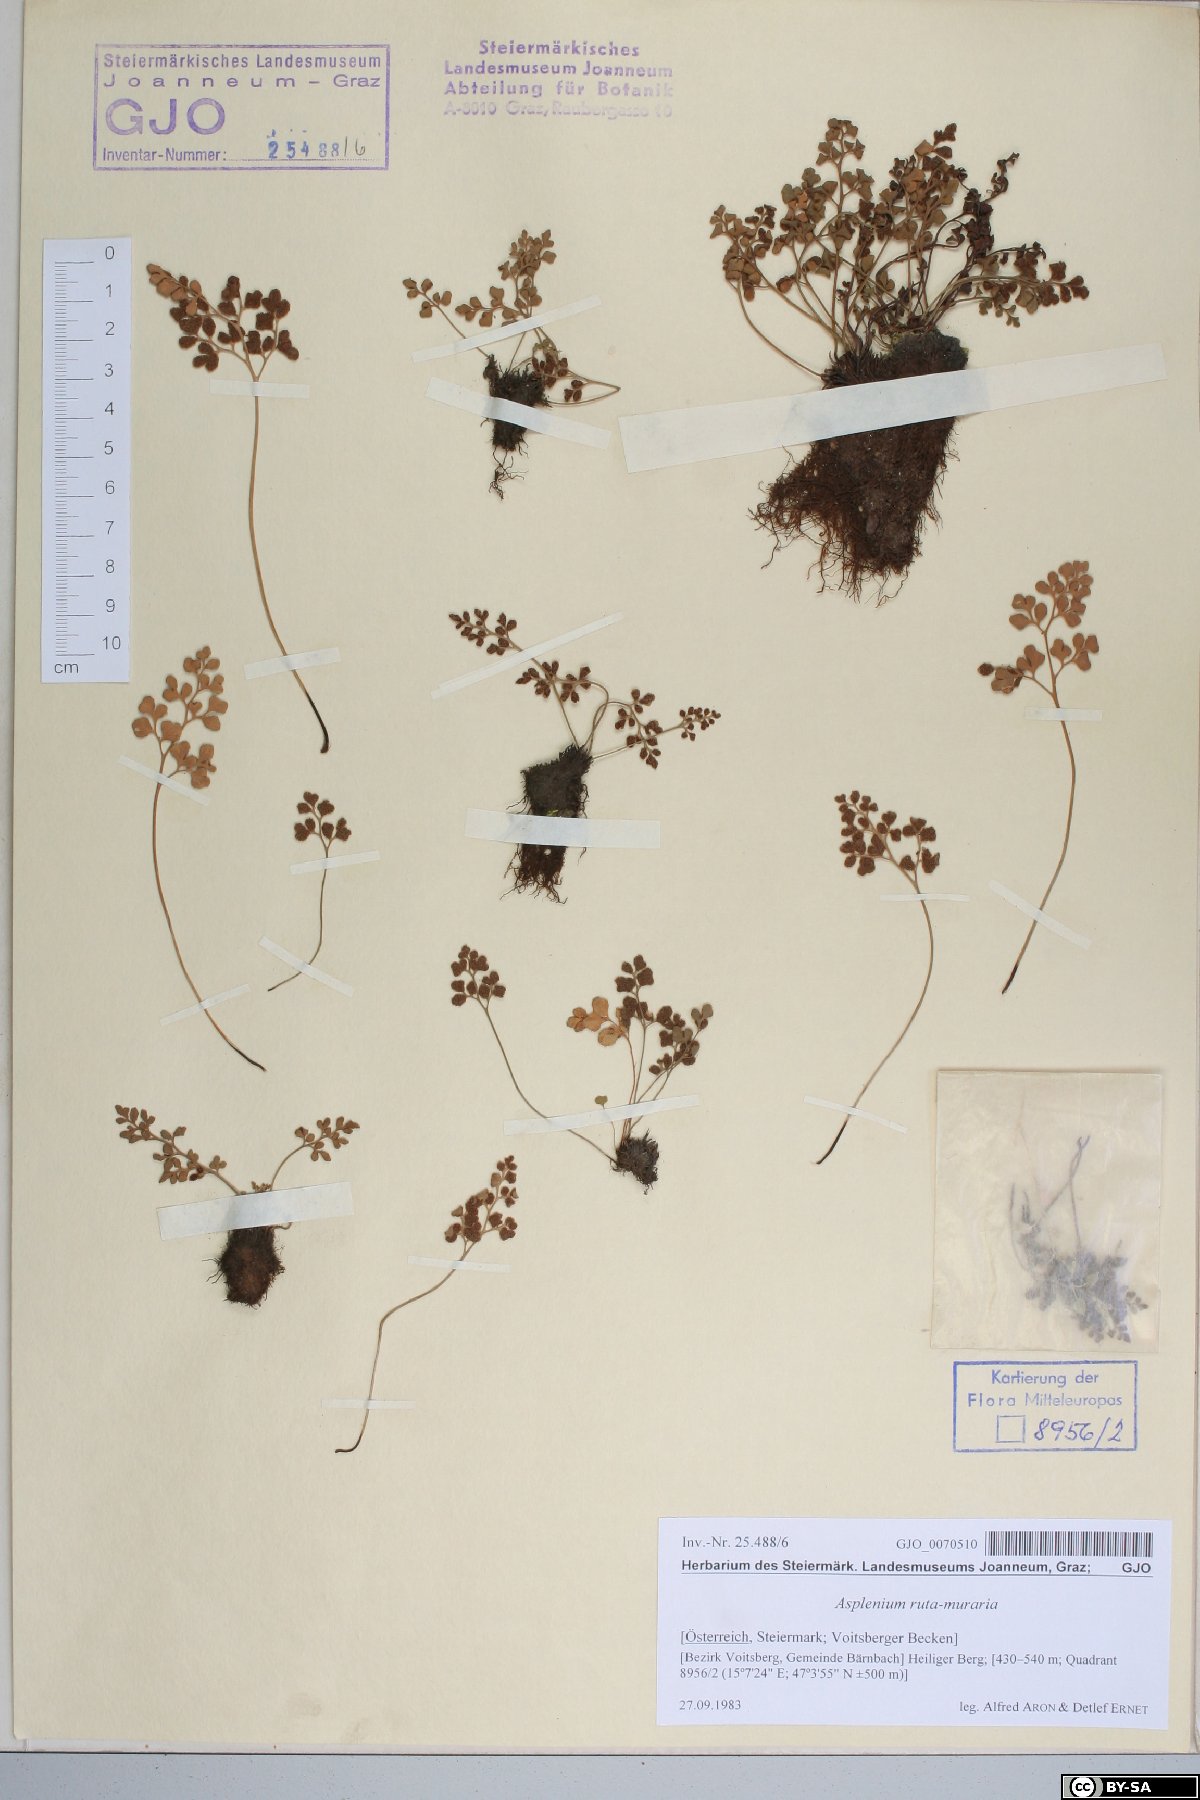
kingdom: Plantae
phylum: Tracheophyta
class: Polypodiopsida
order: Polypodiales
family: Aspleniaceae
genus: Asplenium
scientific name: Asplenium ruta-muraria
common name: Wall-rue
